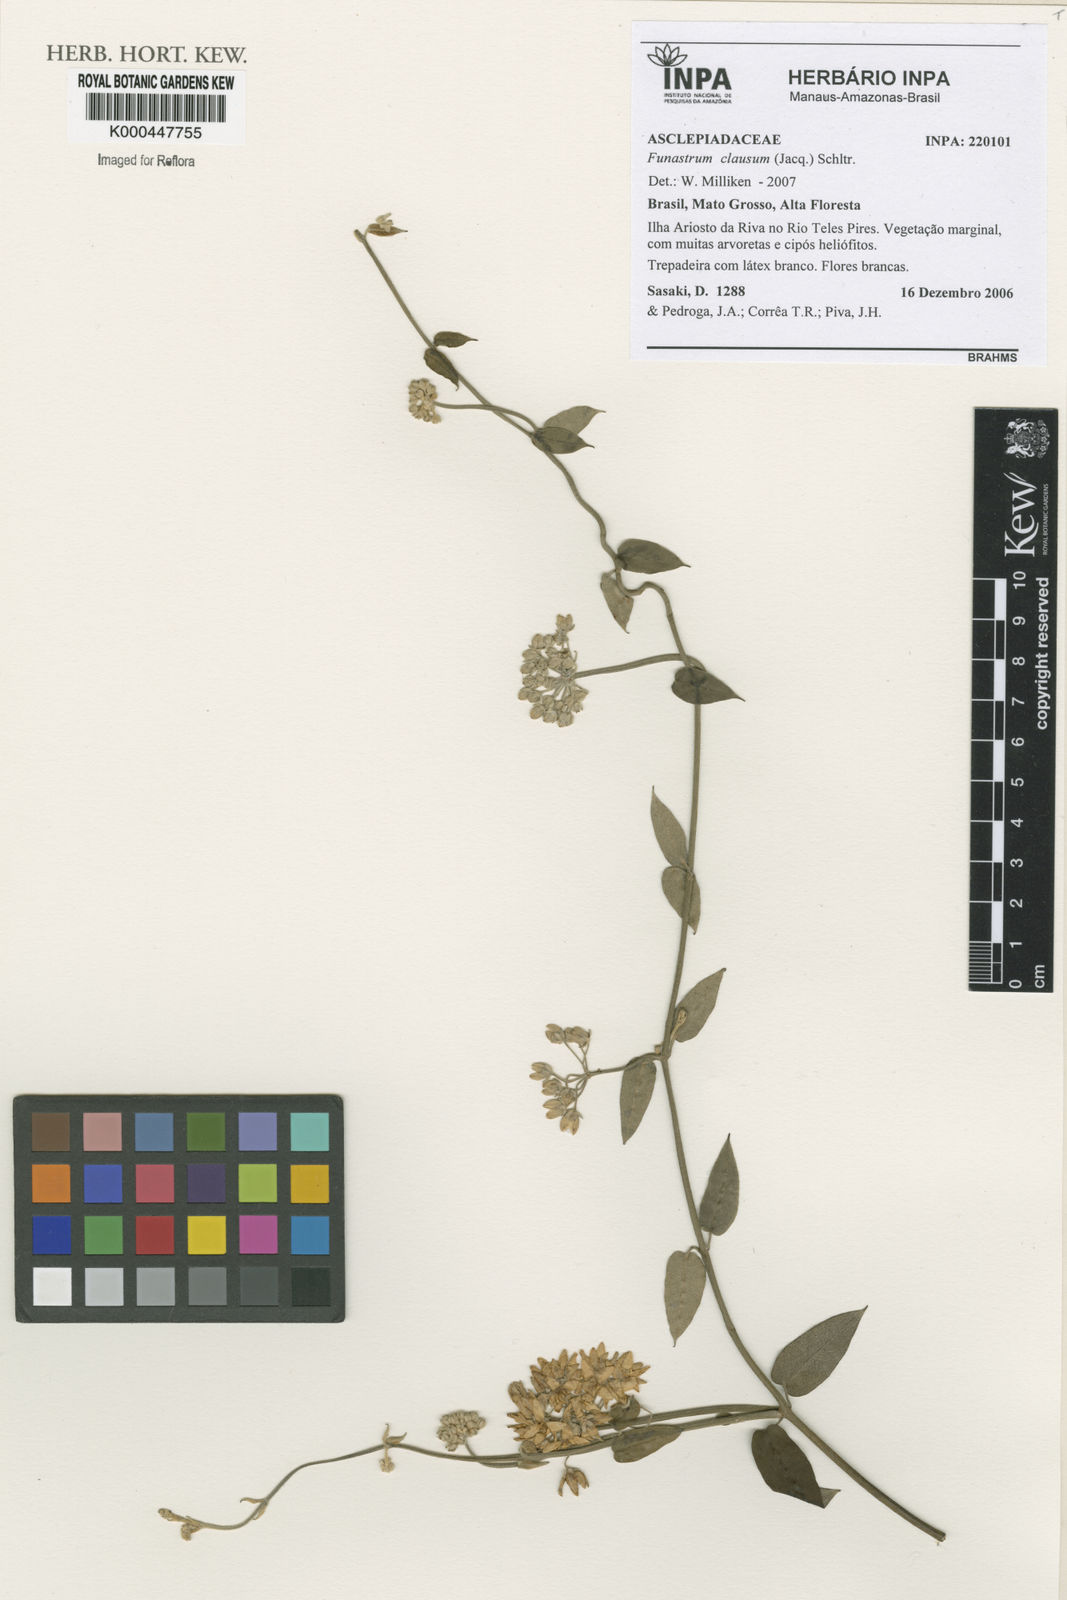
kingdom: Plantae
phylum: Tracheophyta
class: Magnoliopsida
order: Gentianales
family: Apocynaceae
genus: Funastrum
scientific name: Funastrum clausum
